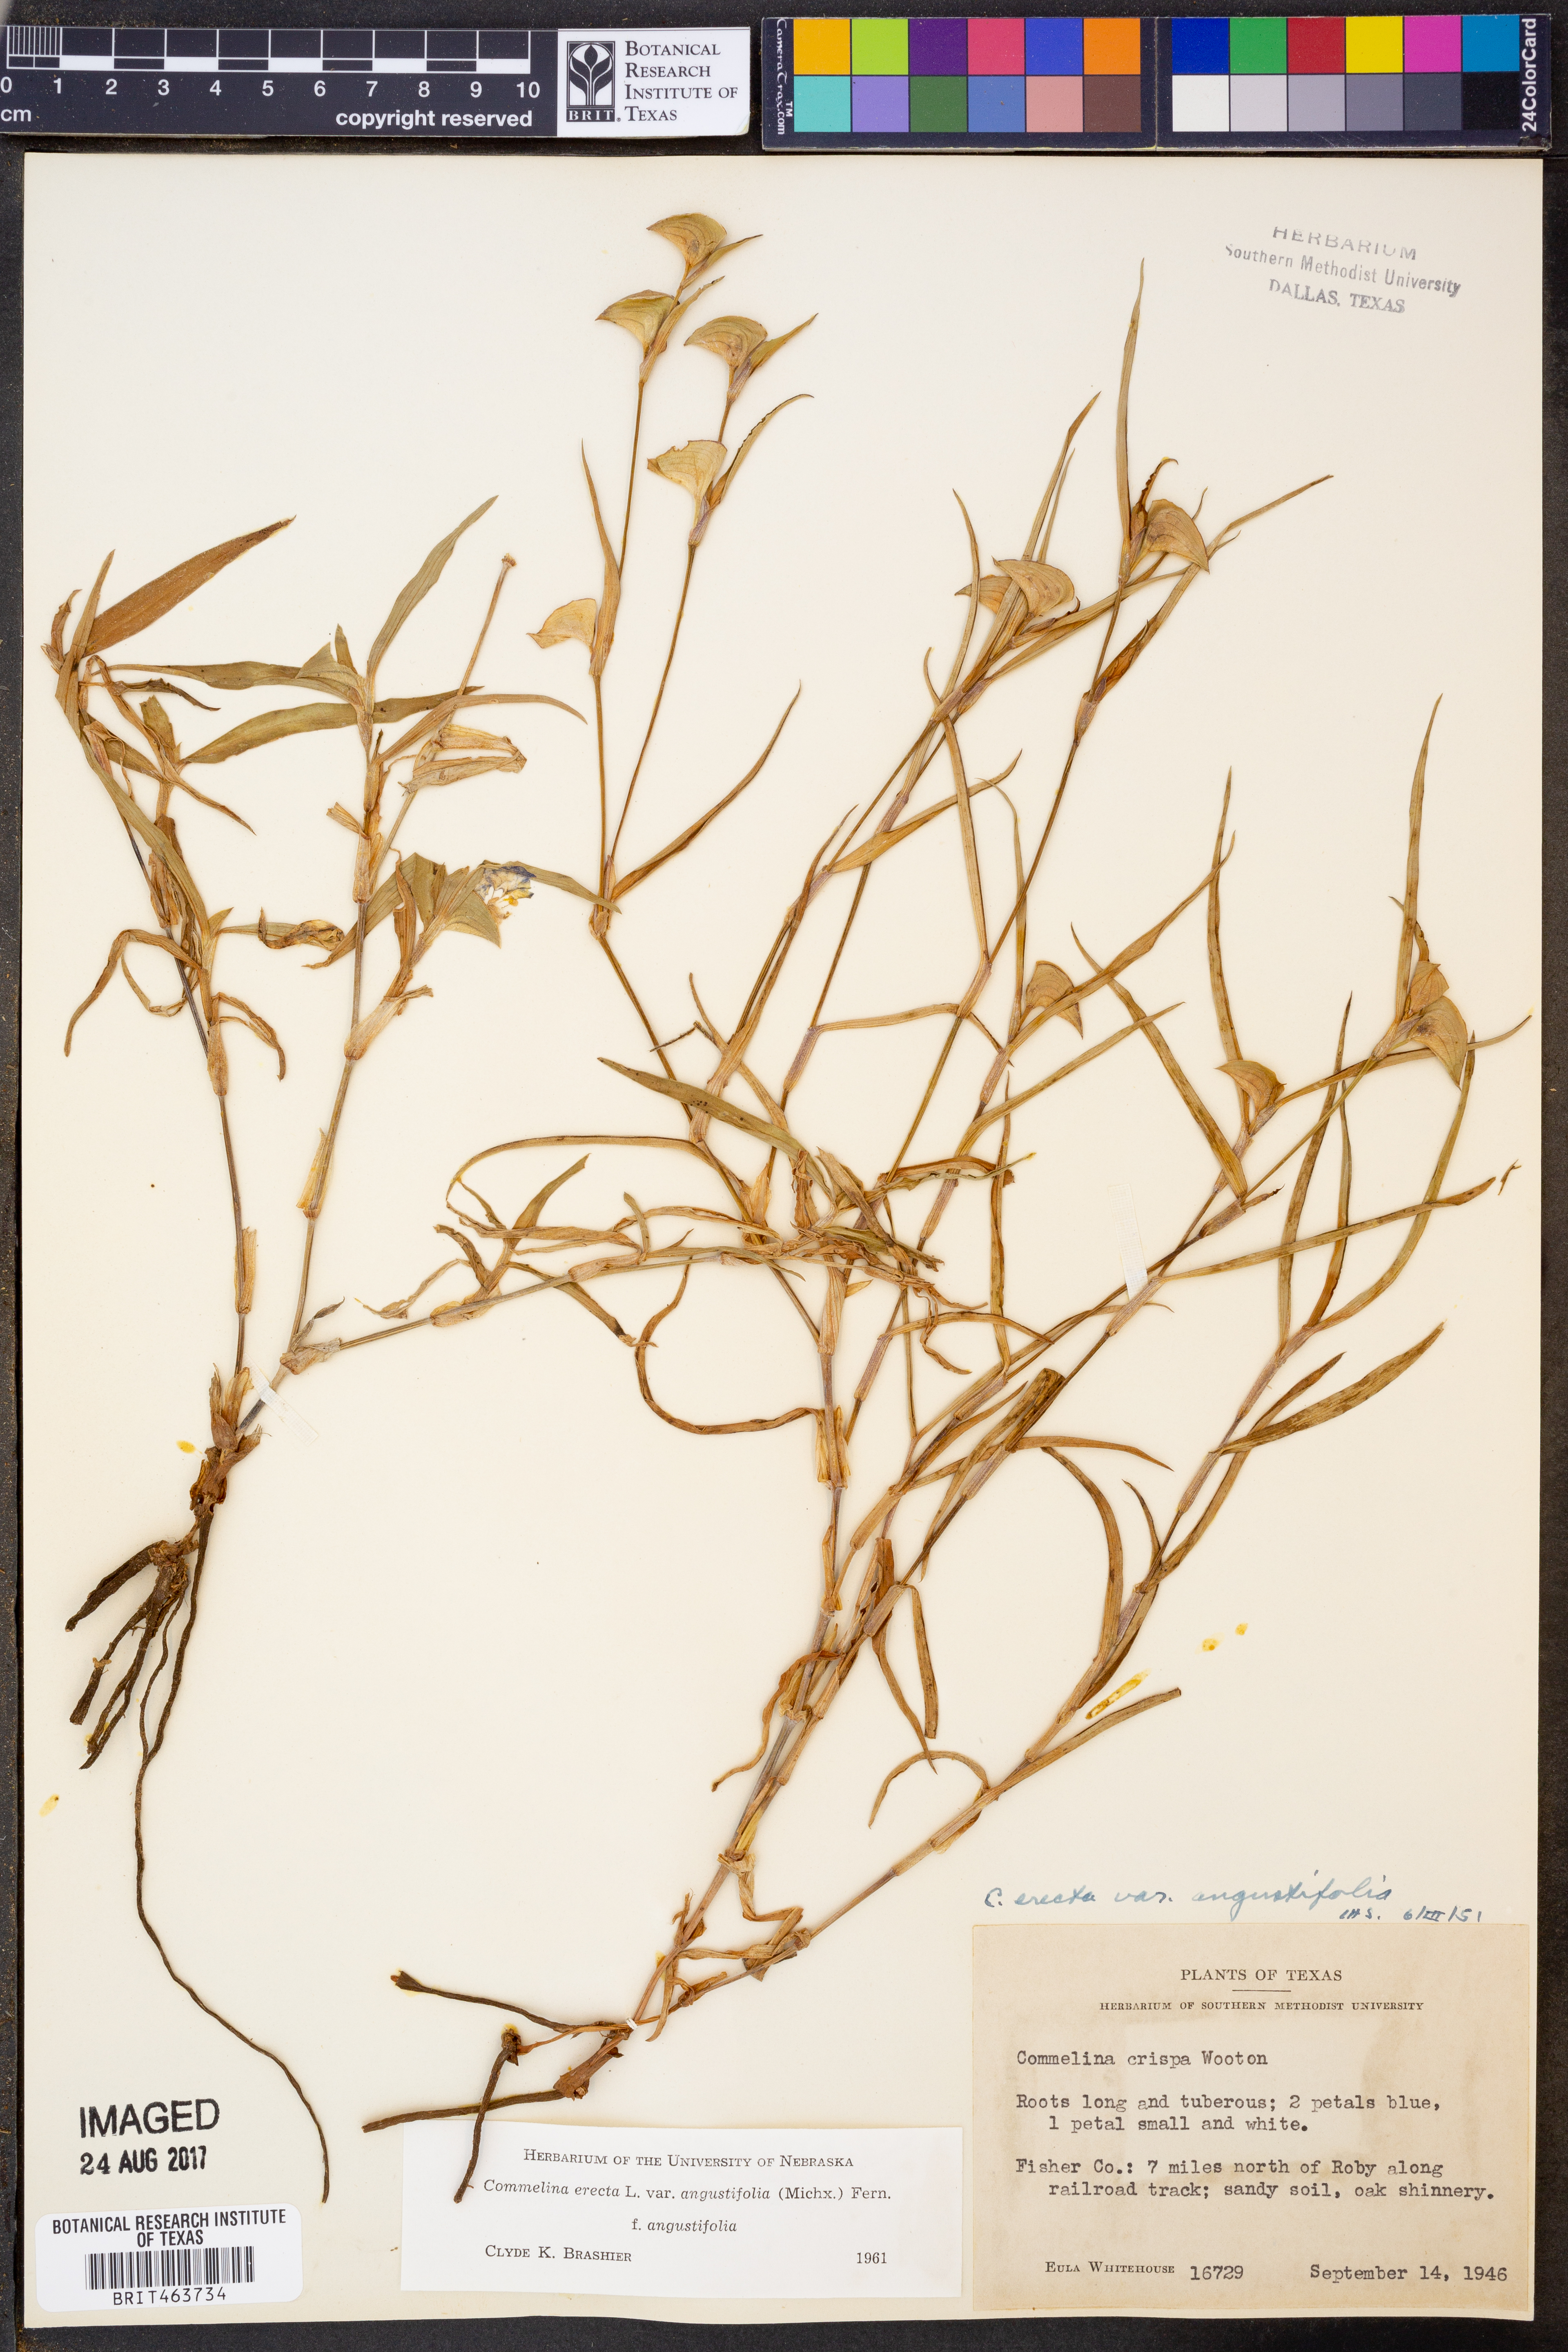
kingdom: Plantae
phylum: Tracheophyta
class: Liliopsida
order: Commelinales
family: Commelinaceae
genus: Commelina
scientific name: Commelina erecta
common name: Blousel blommetjie
